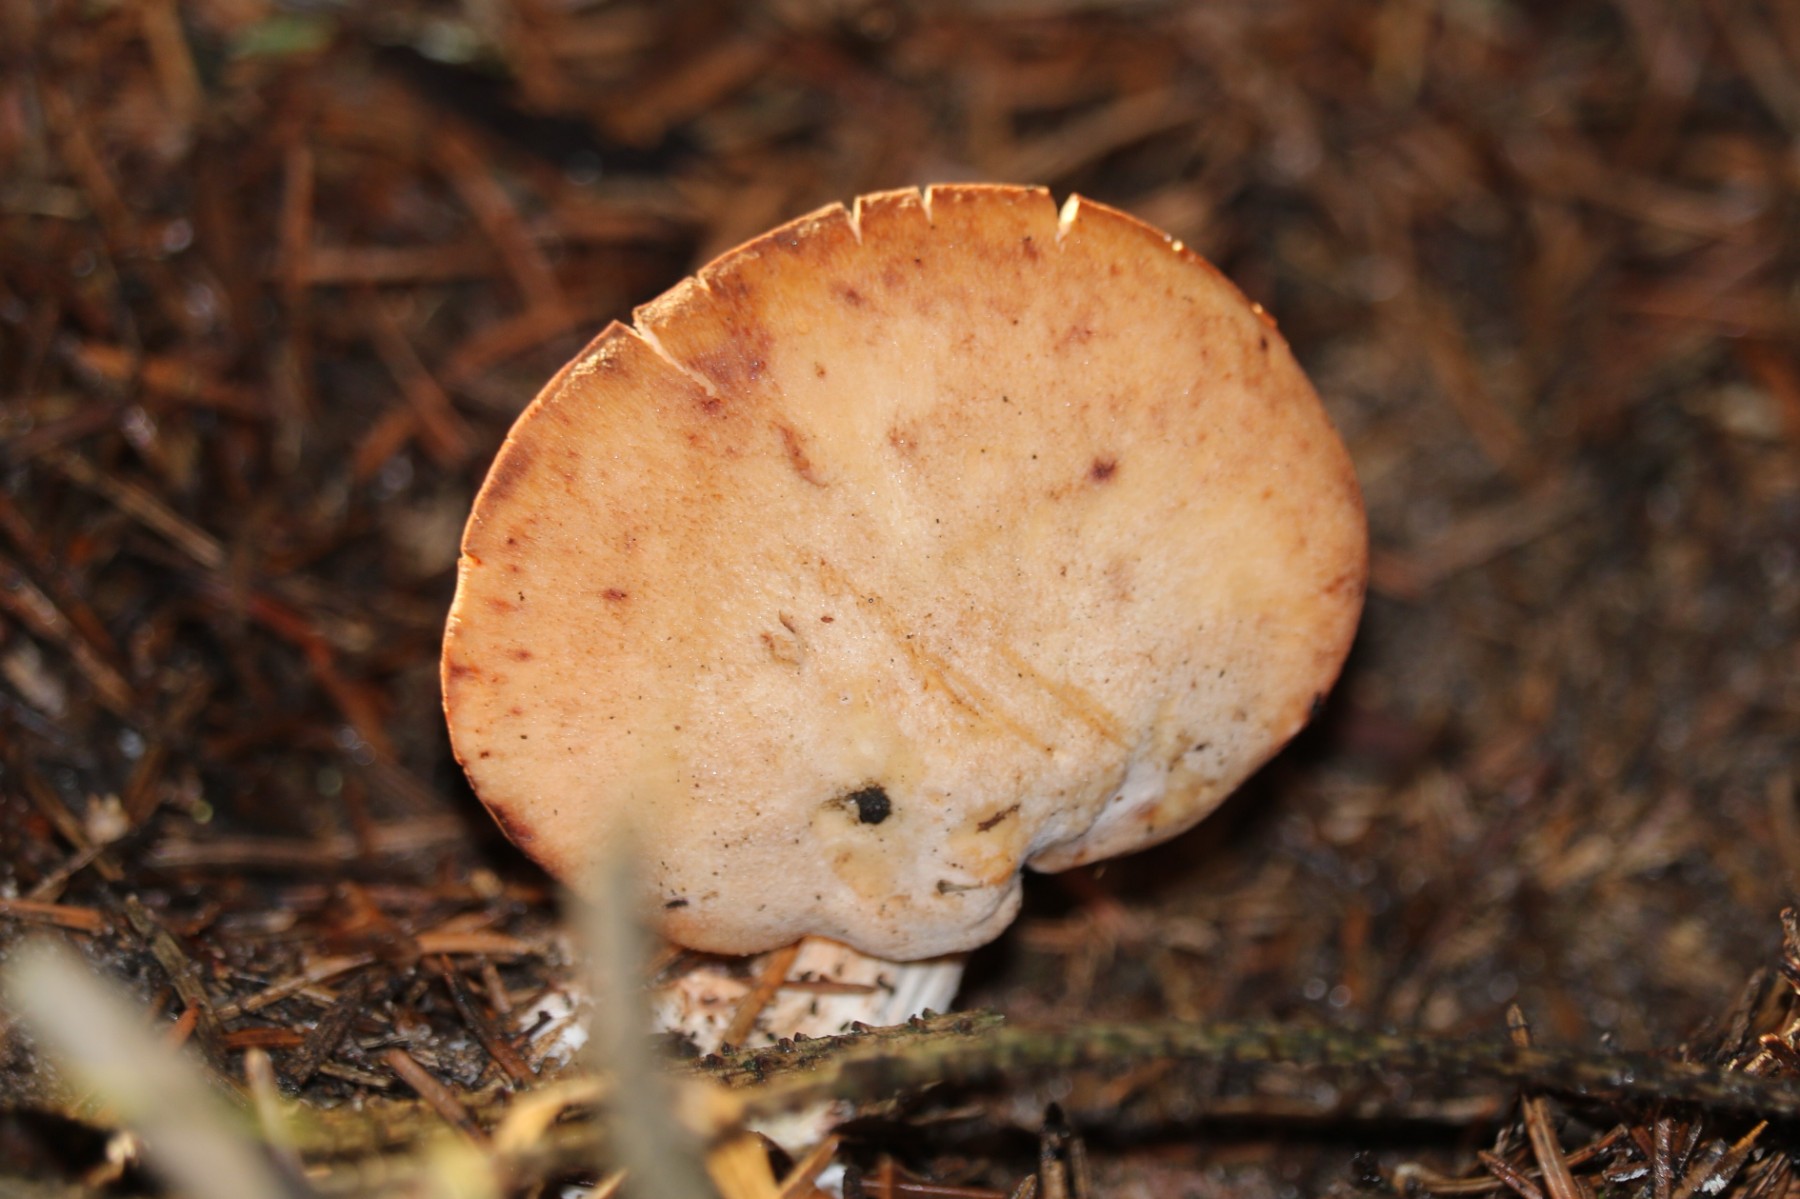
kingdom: Fungi
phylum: Basidiomycota
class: Agaricomycetes
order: Agaricales
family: Entolomataceae
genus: Clitopilus
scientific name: Clitopilus geminus
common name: kødfarvet troldhat
